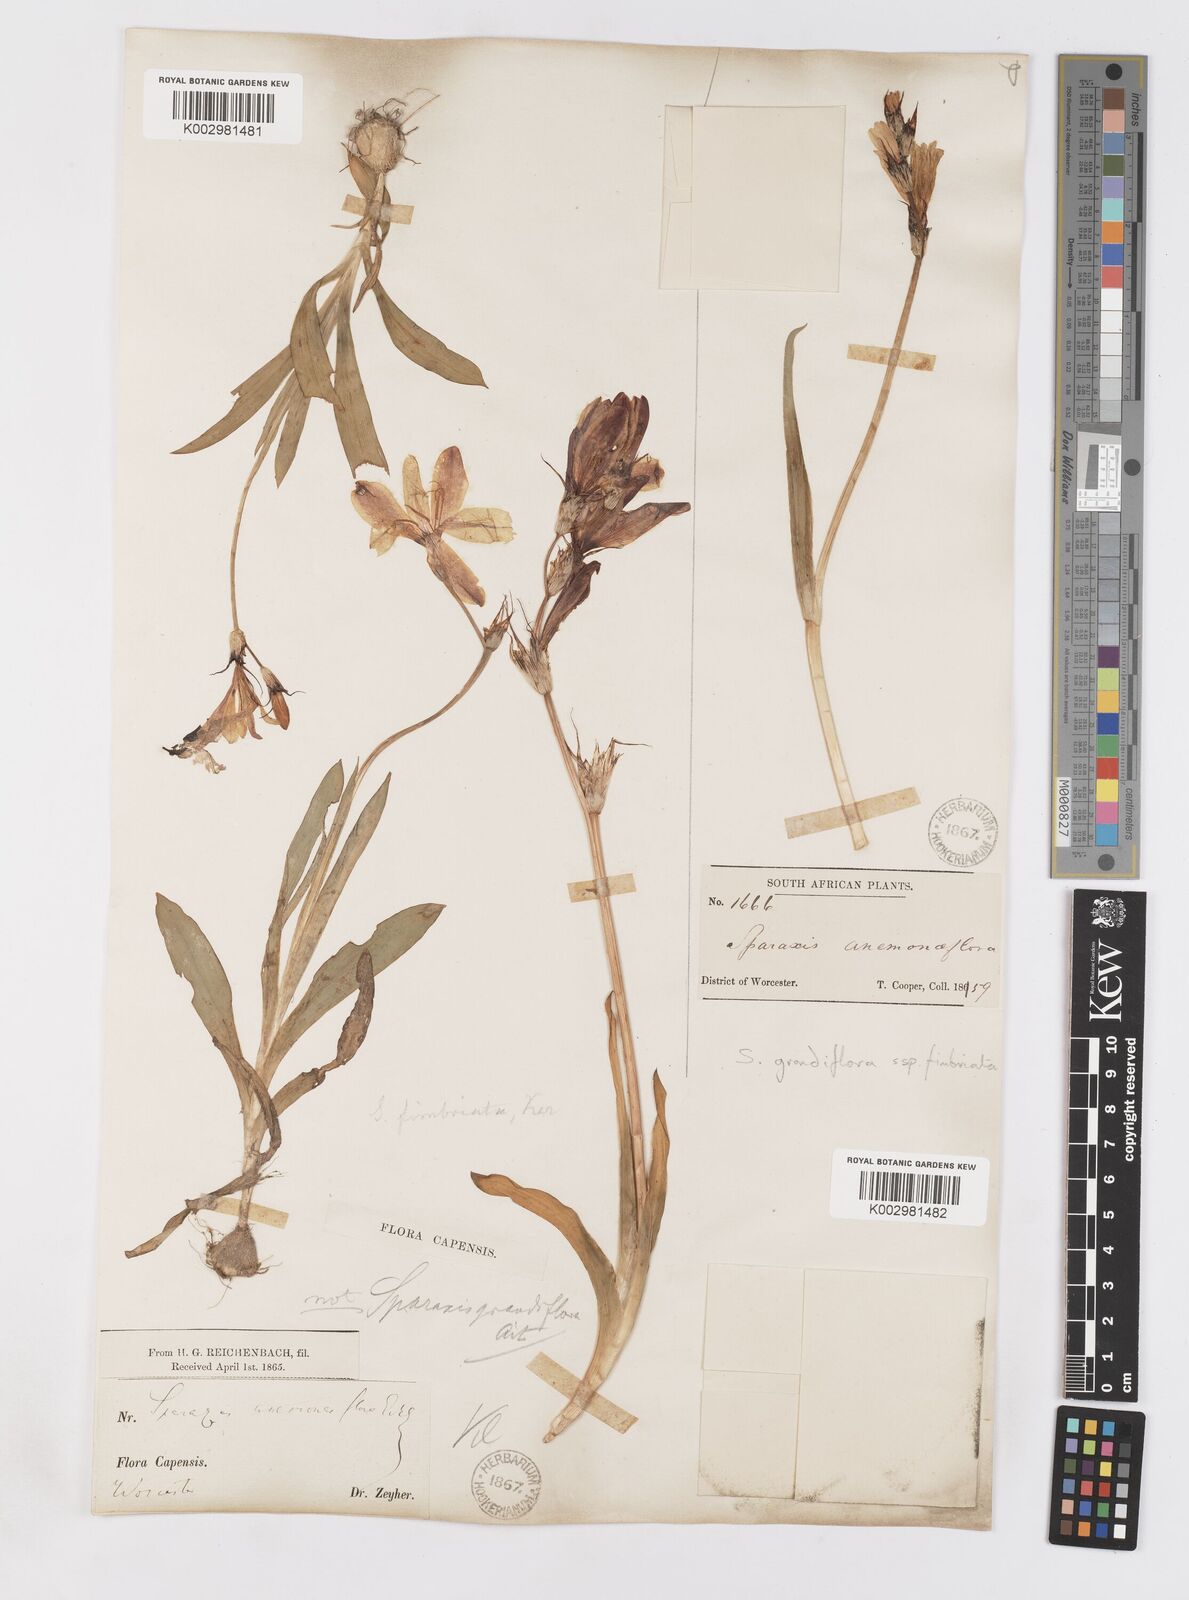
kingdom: Plantae
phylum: Tracheophyta
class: Liliopsida
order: Asparagales
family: Iridaceae
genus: Sparaxis
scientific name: Sparaxis grandiflora
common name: Plain harlequin-flower
